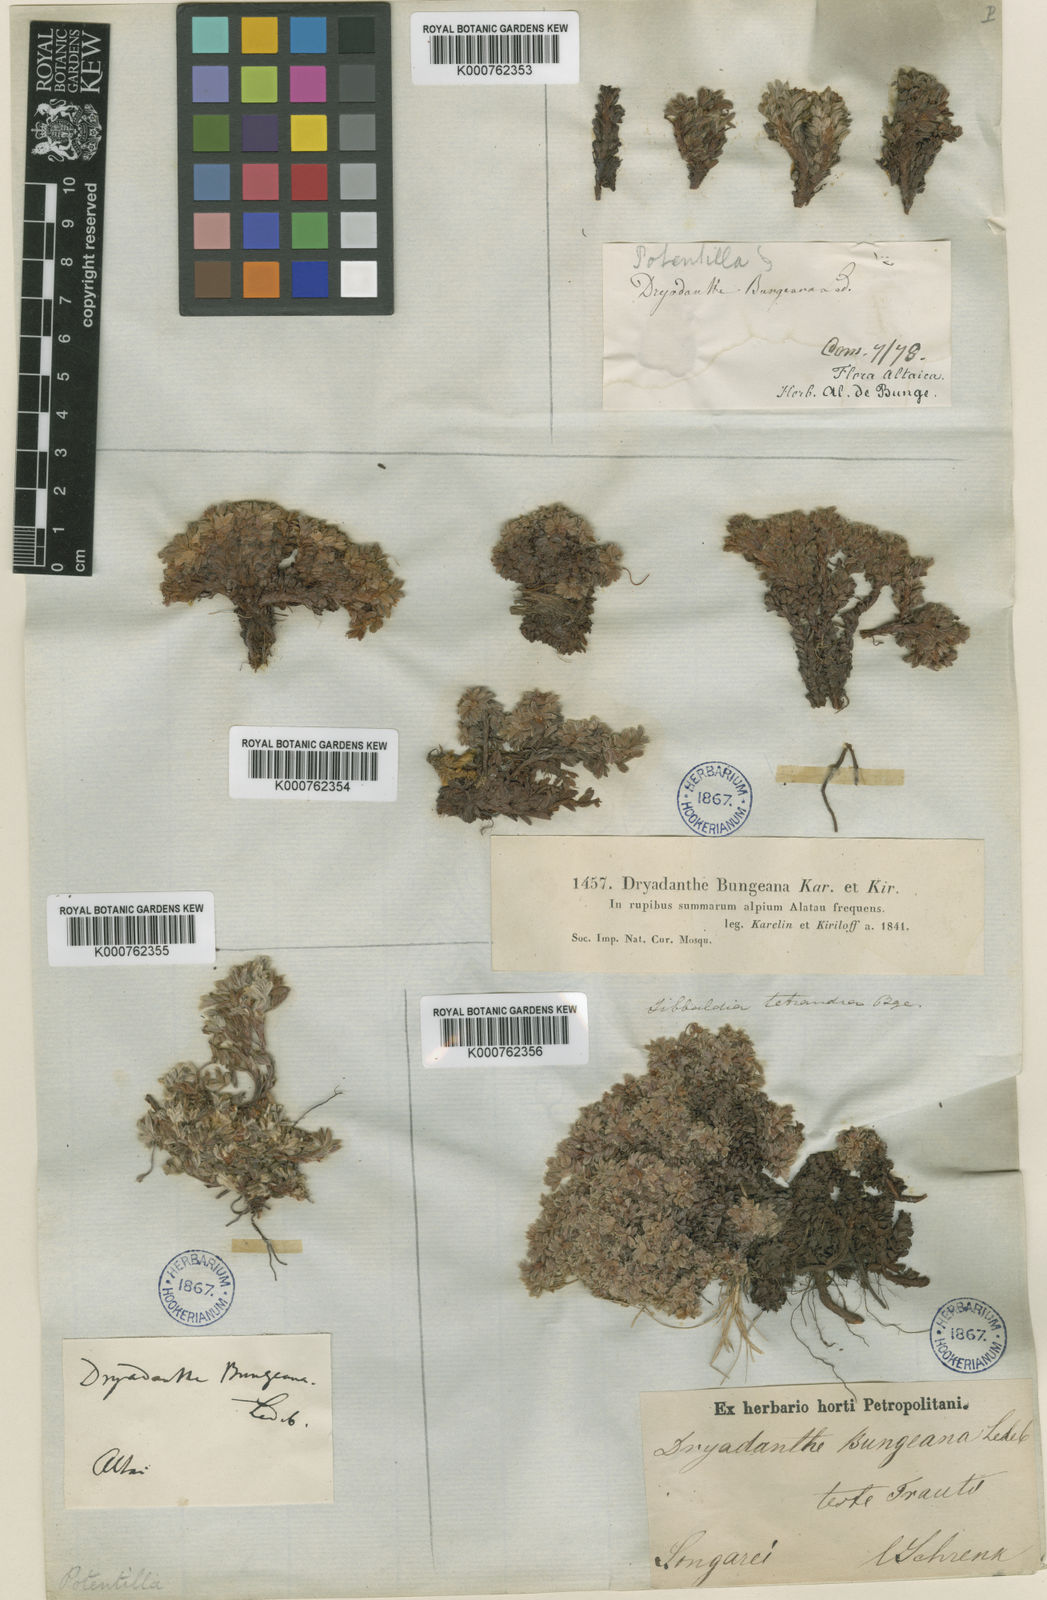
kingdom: Plantae
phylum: Tracheophyta
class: Magnoliopsida
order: Rosales
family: Rosaceae
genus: Potentilla
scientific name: Potentilla bungei
